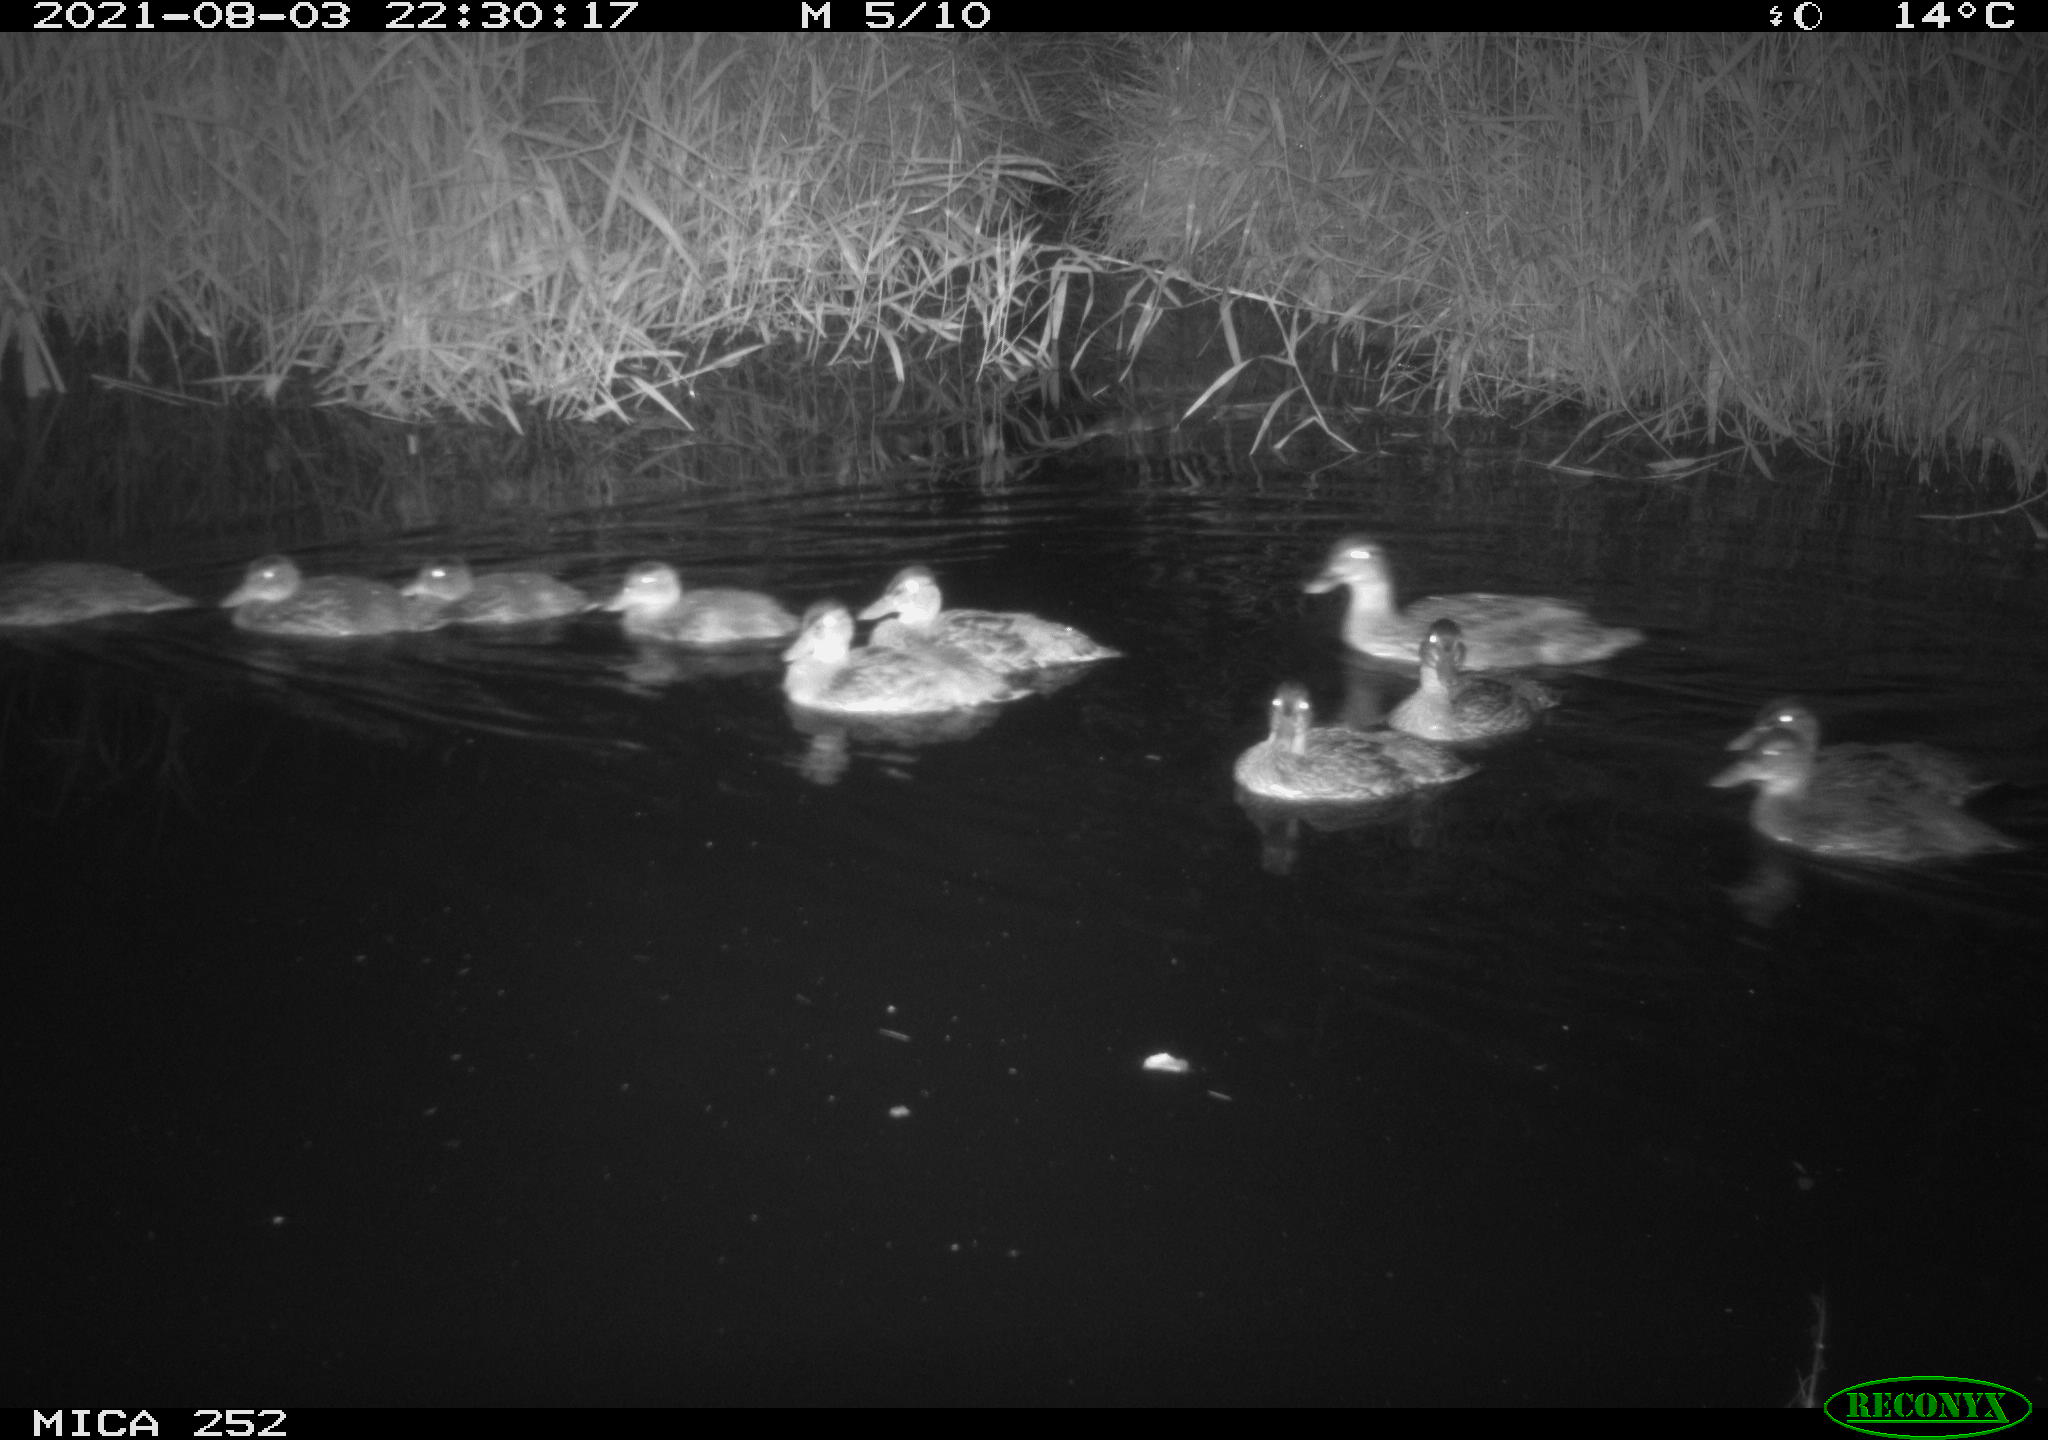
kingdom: Animalia
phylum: Chordata
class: Aves
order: Anseriformes
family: Anatidae
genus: Anas
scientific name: Anas
